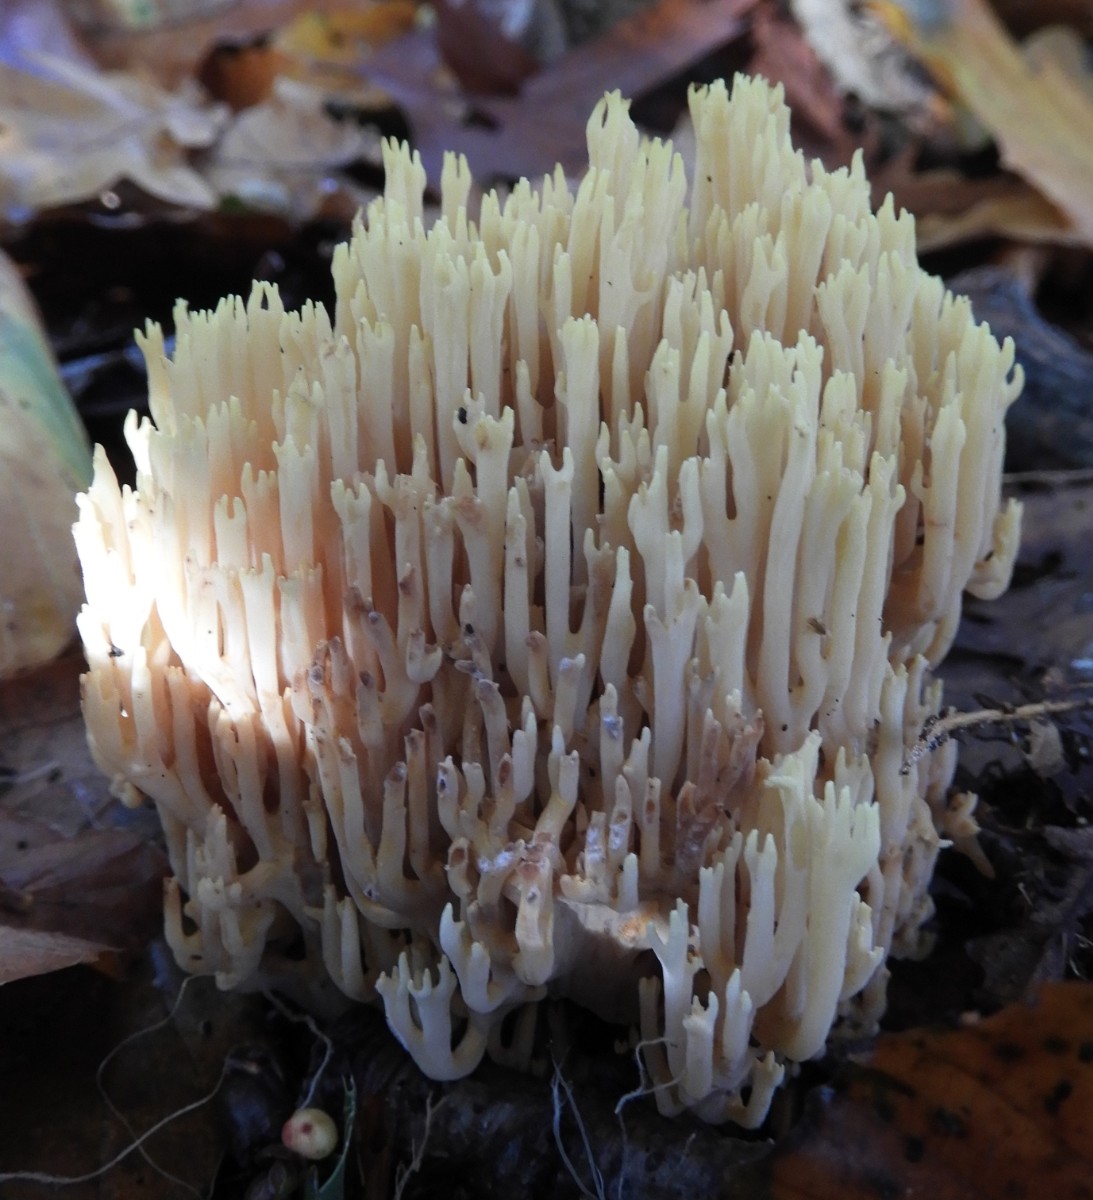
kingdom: Fungi
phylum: Basidiomycota
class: Agaricomycetes
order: Gomphales
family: Gomphaceae
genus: Ramaria
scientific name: Ramaria stricta
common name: rank koralsvamp
